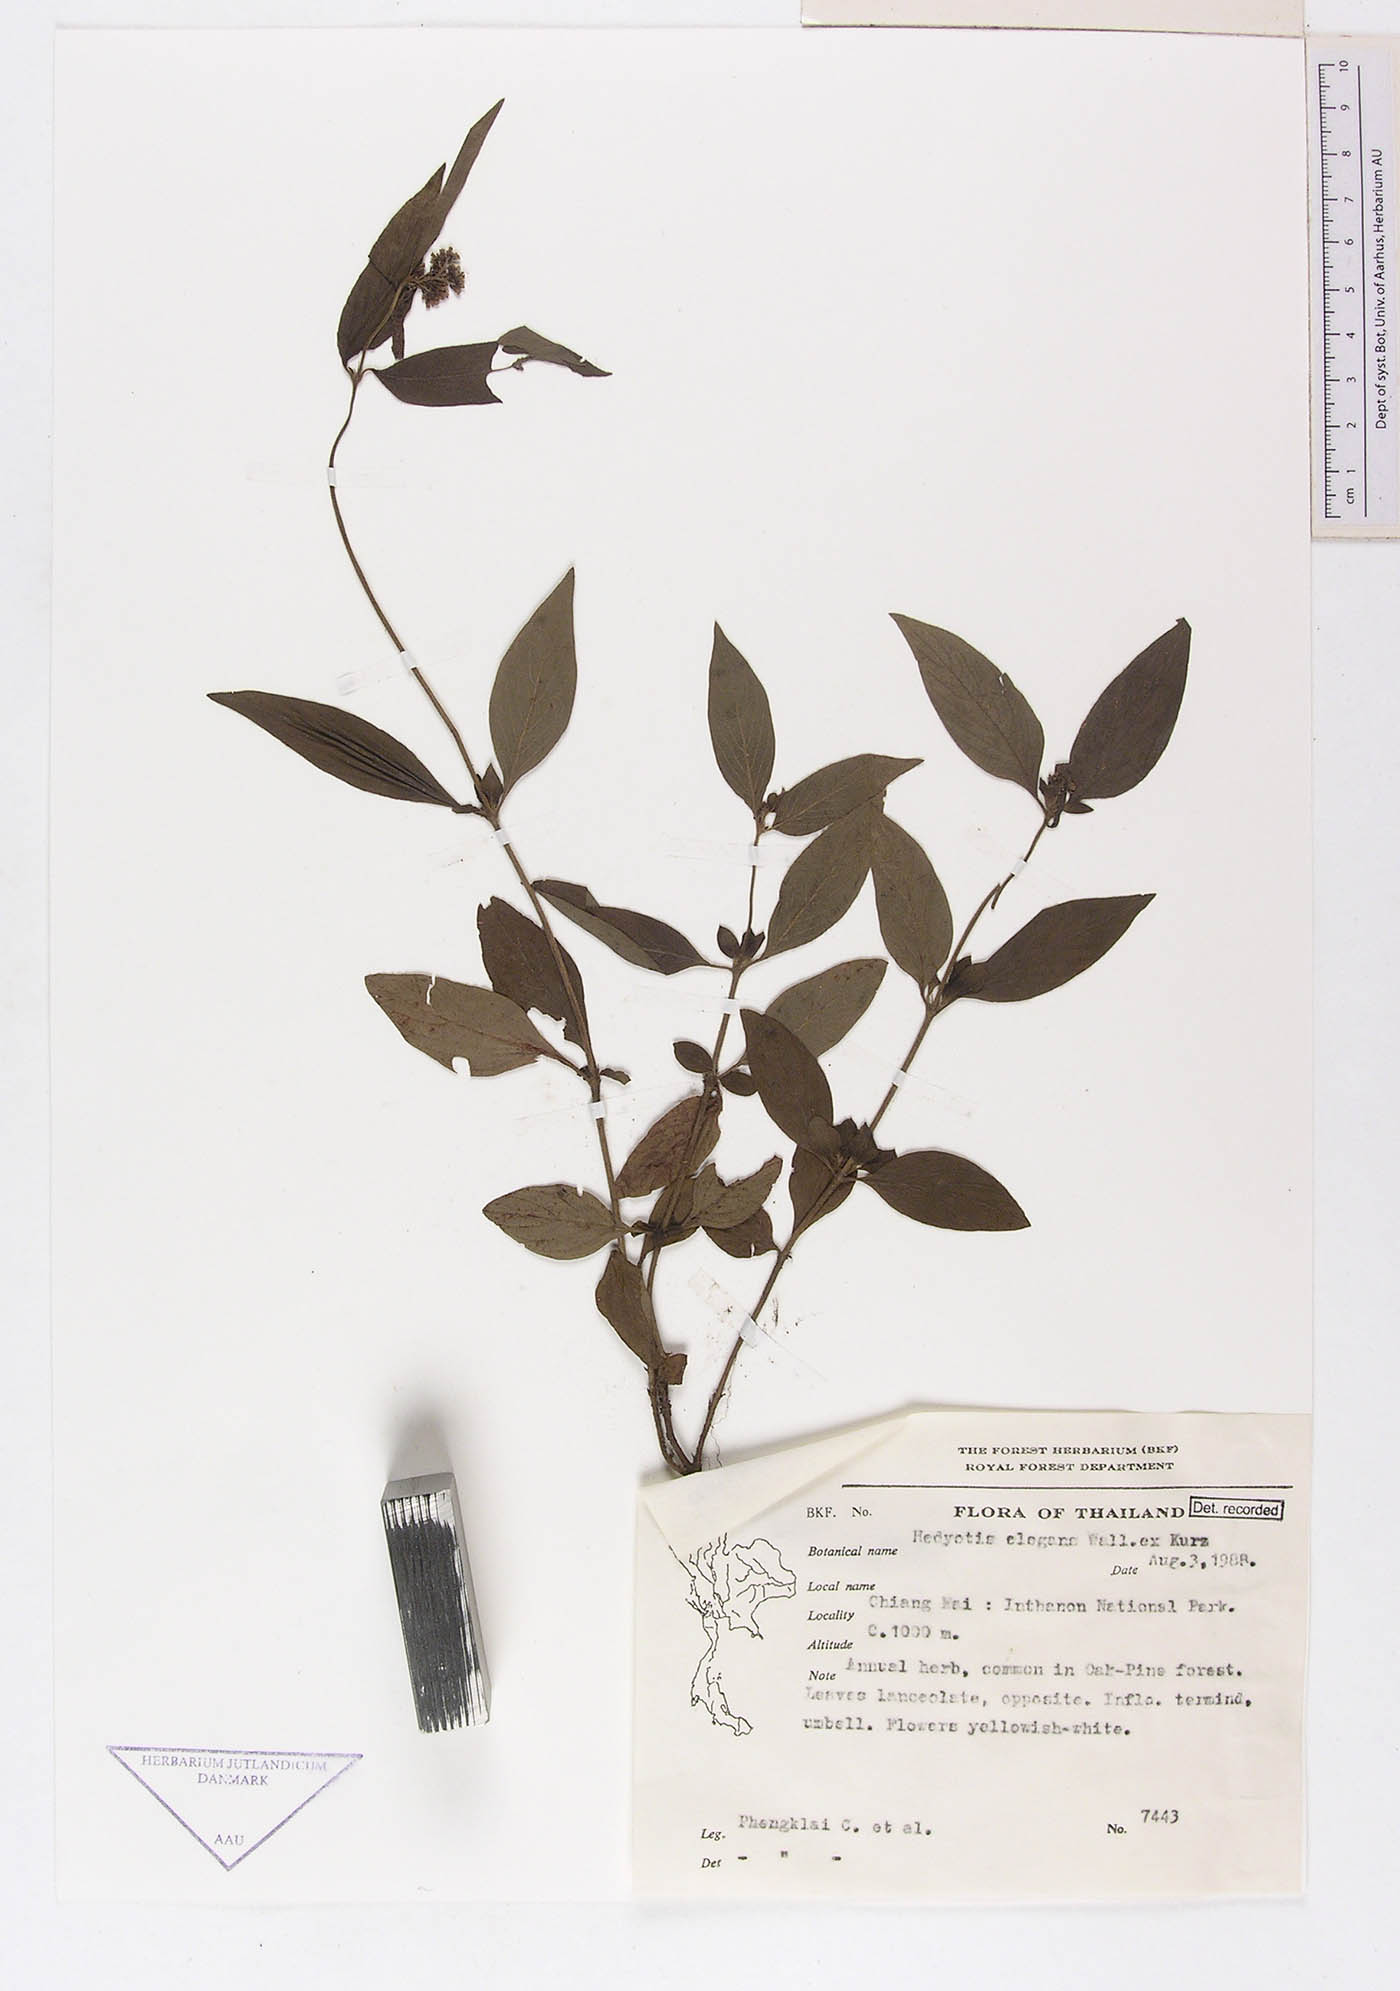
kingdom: Plantae
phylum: Tracheophyta
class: Magnoliopsida
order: Gentianales
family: Rubiaceae
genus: Hedyotis
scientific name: Hedyotis elegans
